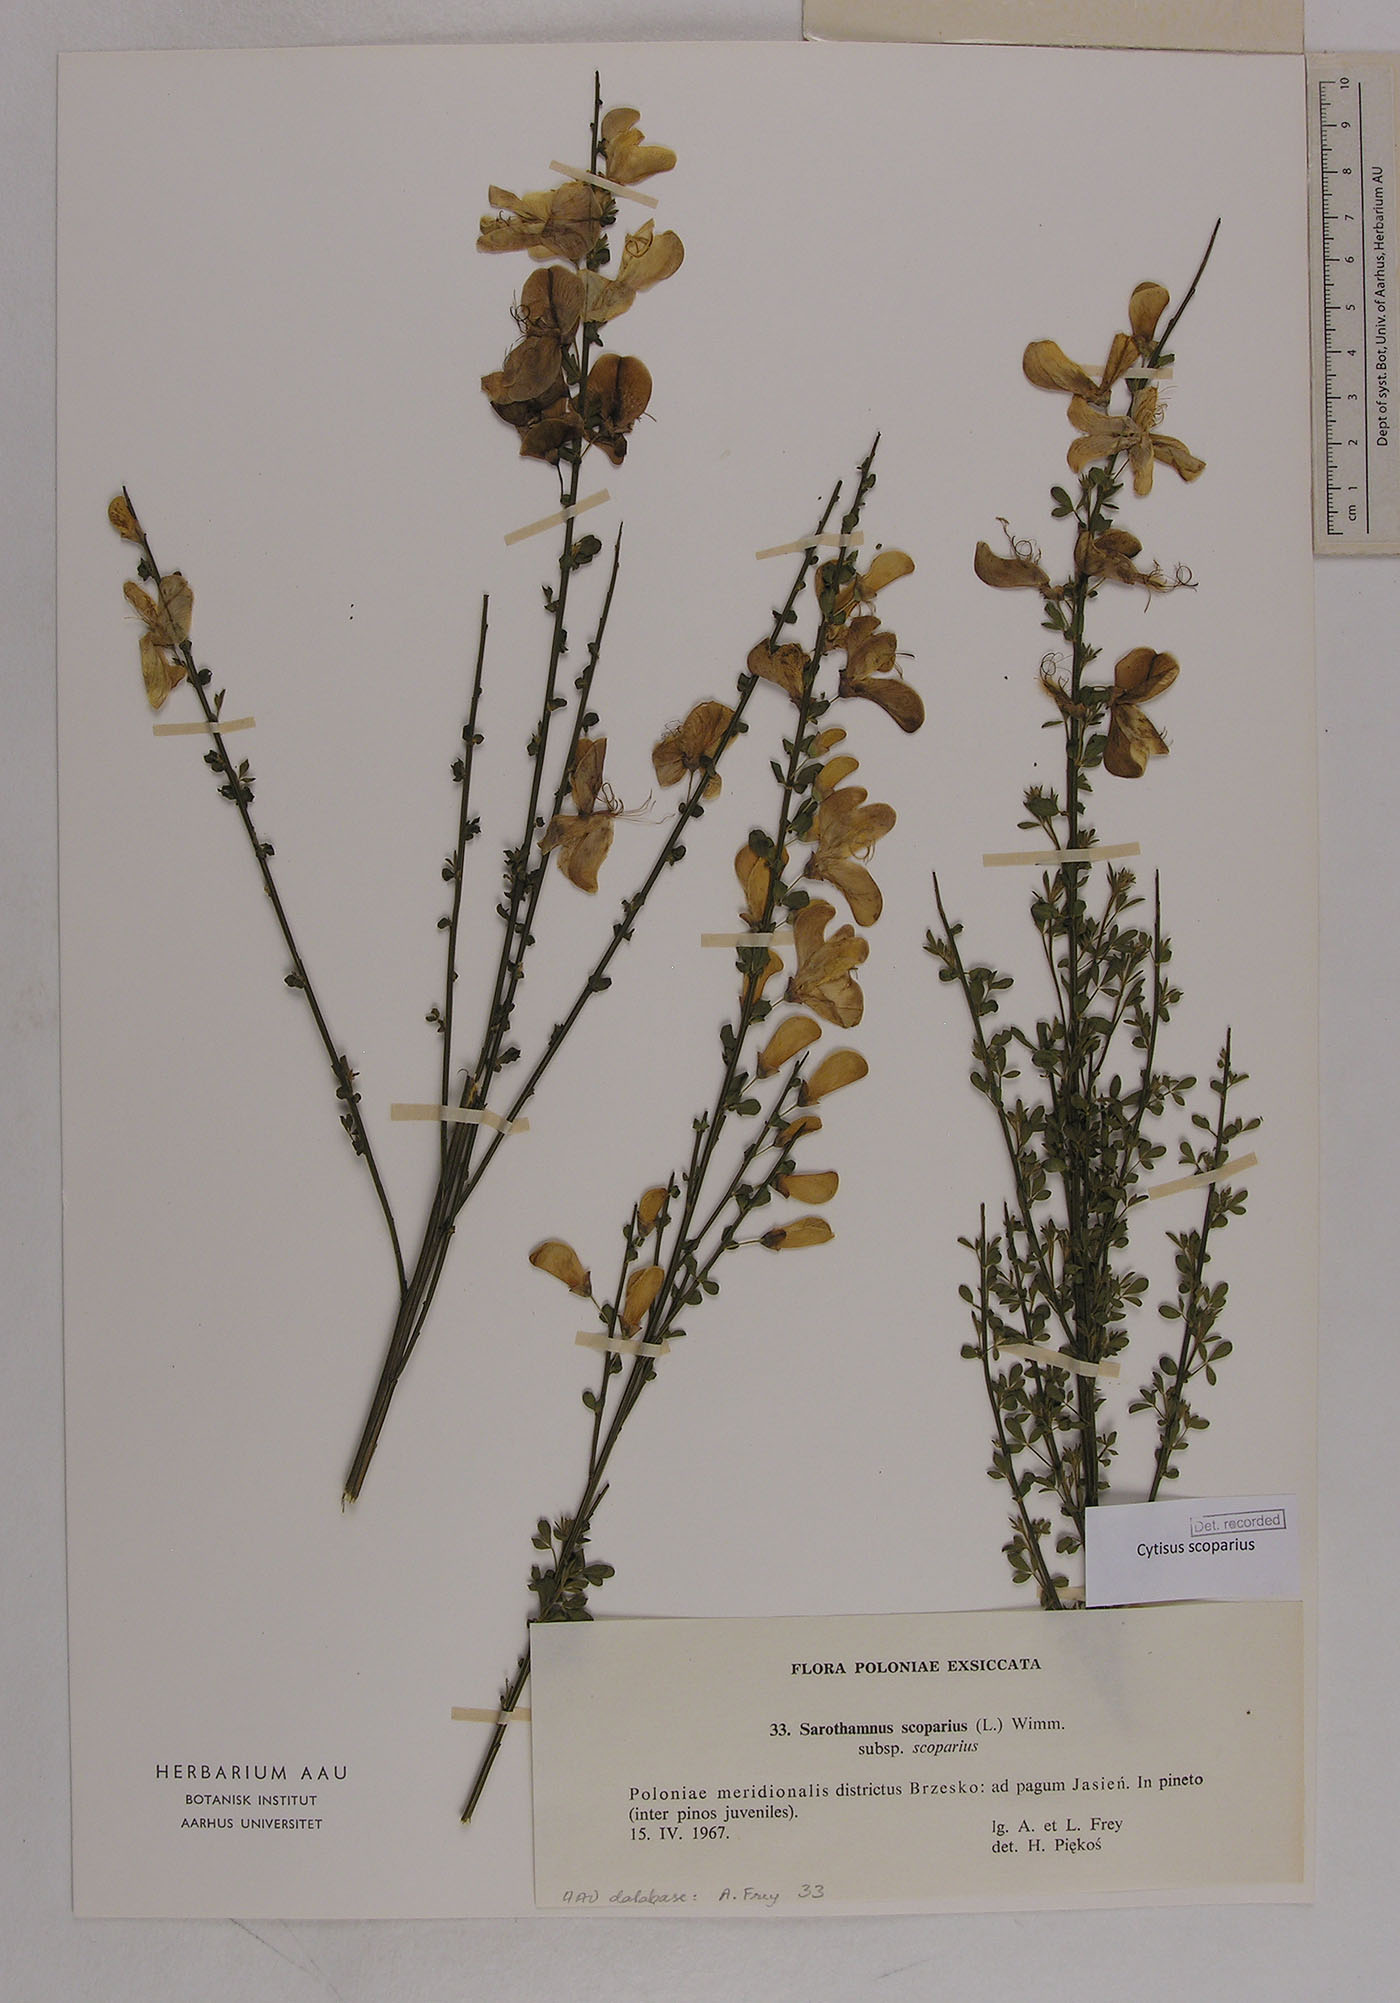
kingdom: Plantae
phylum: Tracheophyta
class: Magnoliopsida
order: Fabales
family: Fabaceae
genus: Cytisus
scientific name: Cytisus scoparius
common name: Scotch broom
